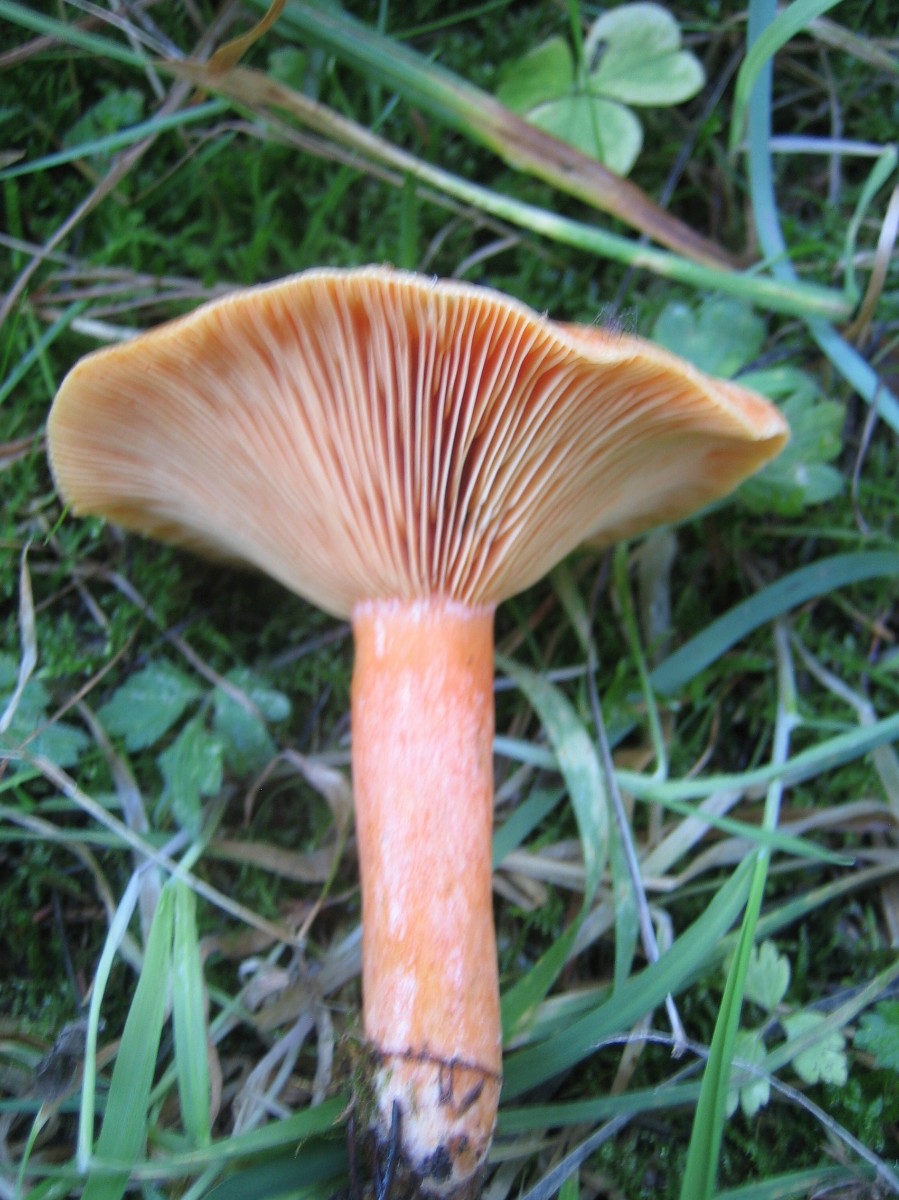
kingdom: Fungi
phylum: Basidiomycota
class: Agaricomycetes
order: Russulales
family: Russulaceae
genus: Lactarius
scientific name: Lactarius deterrimus
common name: gran-mælkehat
